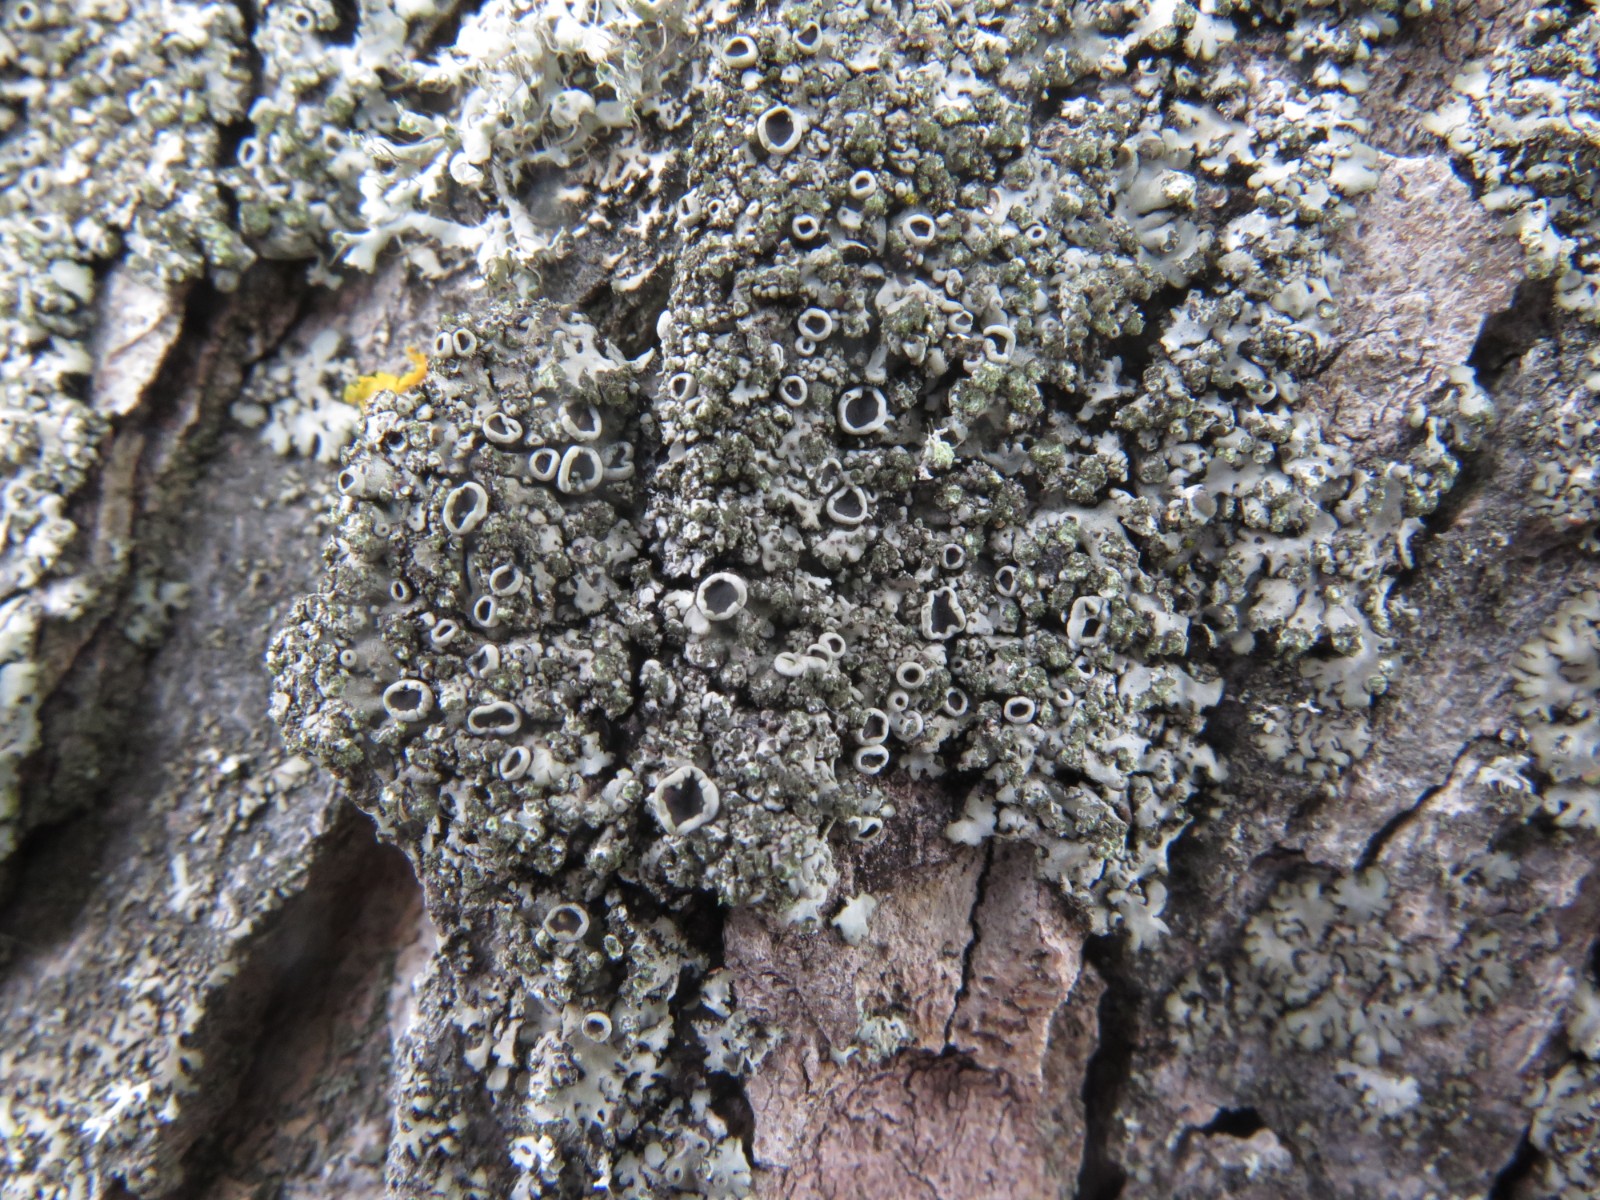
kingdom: Fungi
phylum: Ascomycota
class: Lecanoromycetes
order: Caliciales
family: Physciaceae
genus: Phaeophyscia
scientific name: Phaeophyscia orbicularis
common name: grågrøn rosetlav
